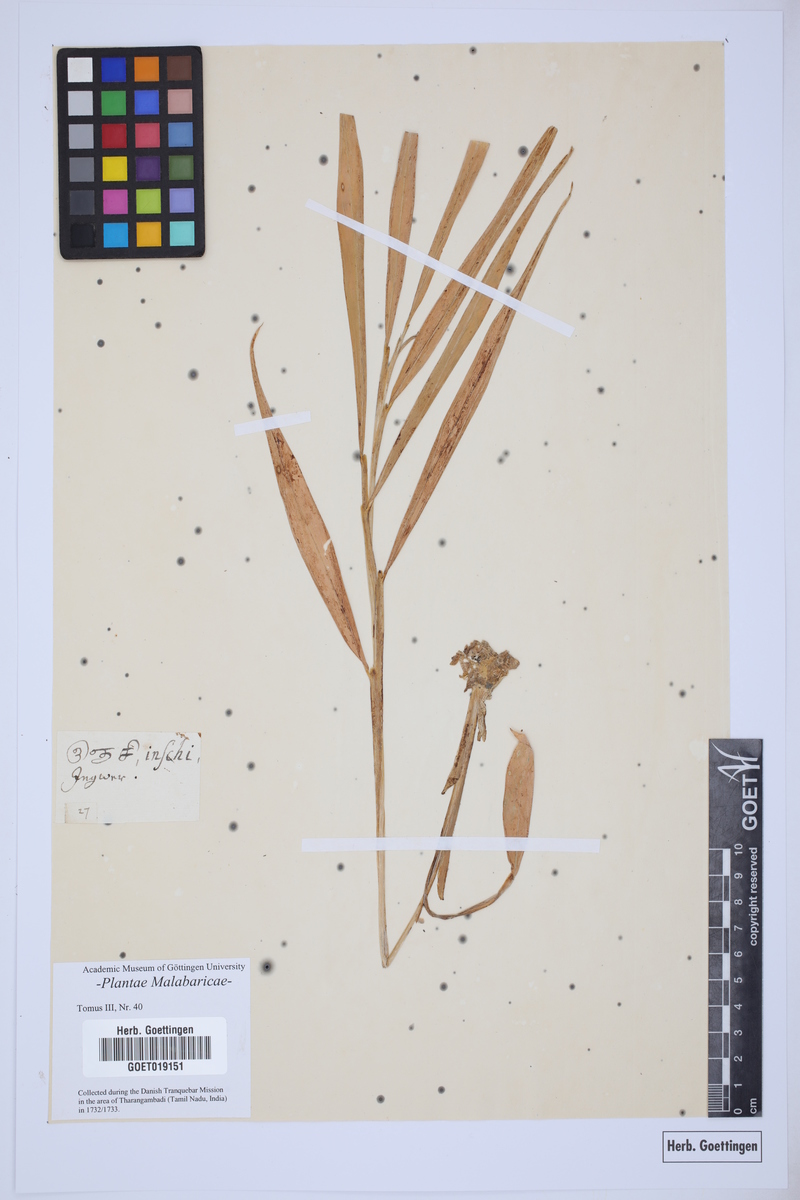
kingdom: Plantae
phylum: Tracheophyta
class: Liliopsida
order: Zingiberales
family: Zingiberaceae
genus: Zingiber
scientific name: Zingiber officinale
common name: Ginger
